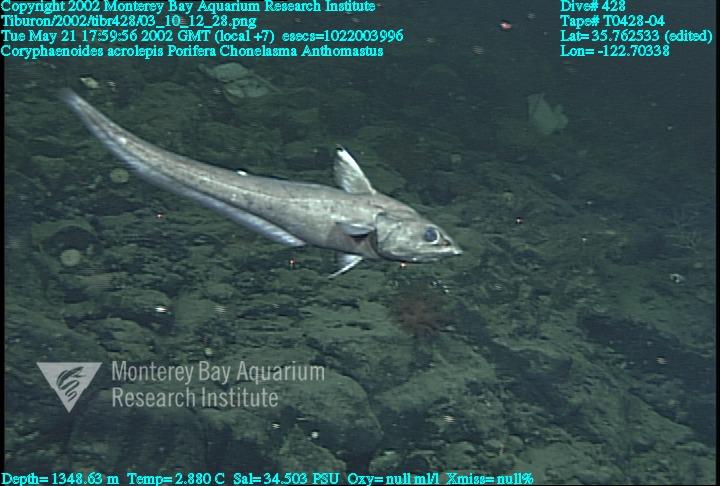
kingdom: Animalia
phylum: Porifera
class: Hexactinellida
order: Sceptrulophora
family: Euretidae
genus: Chonelasma
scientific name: Chonelasma
